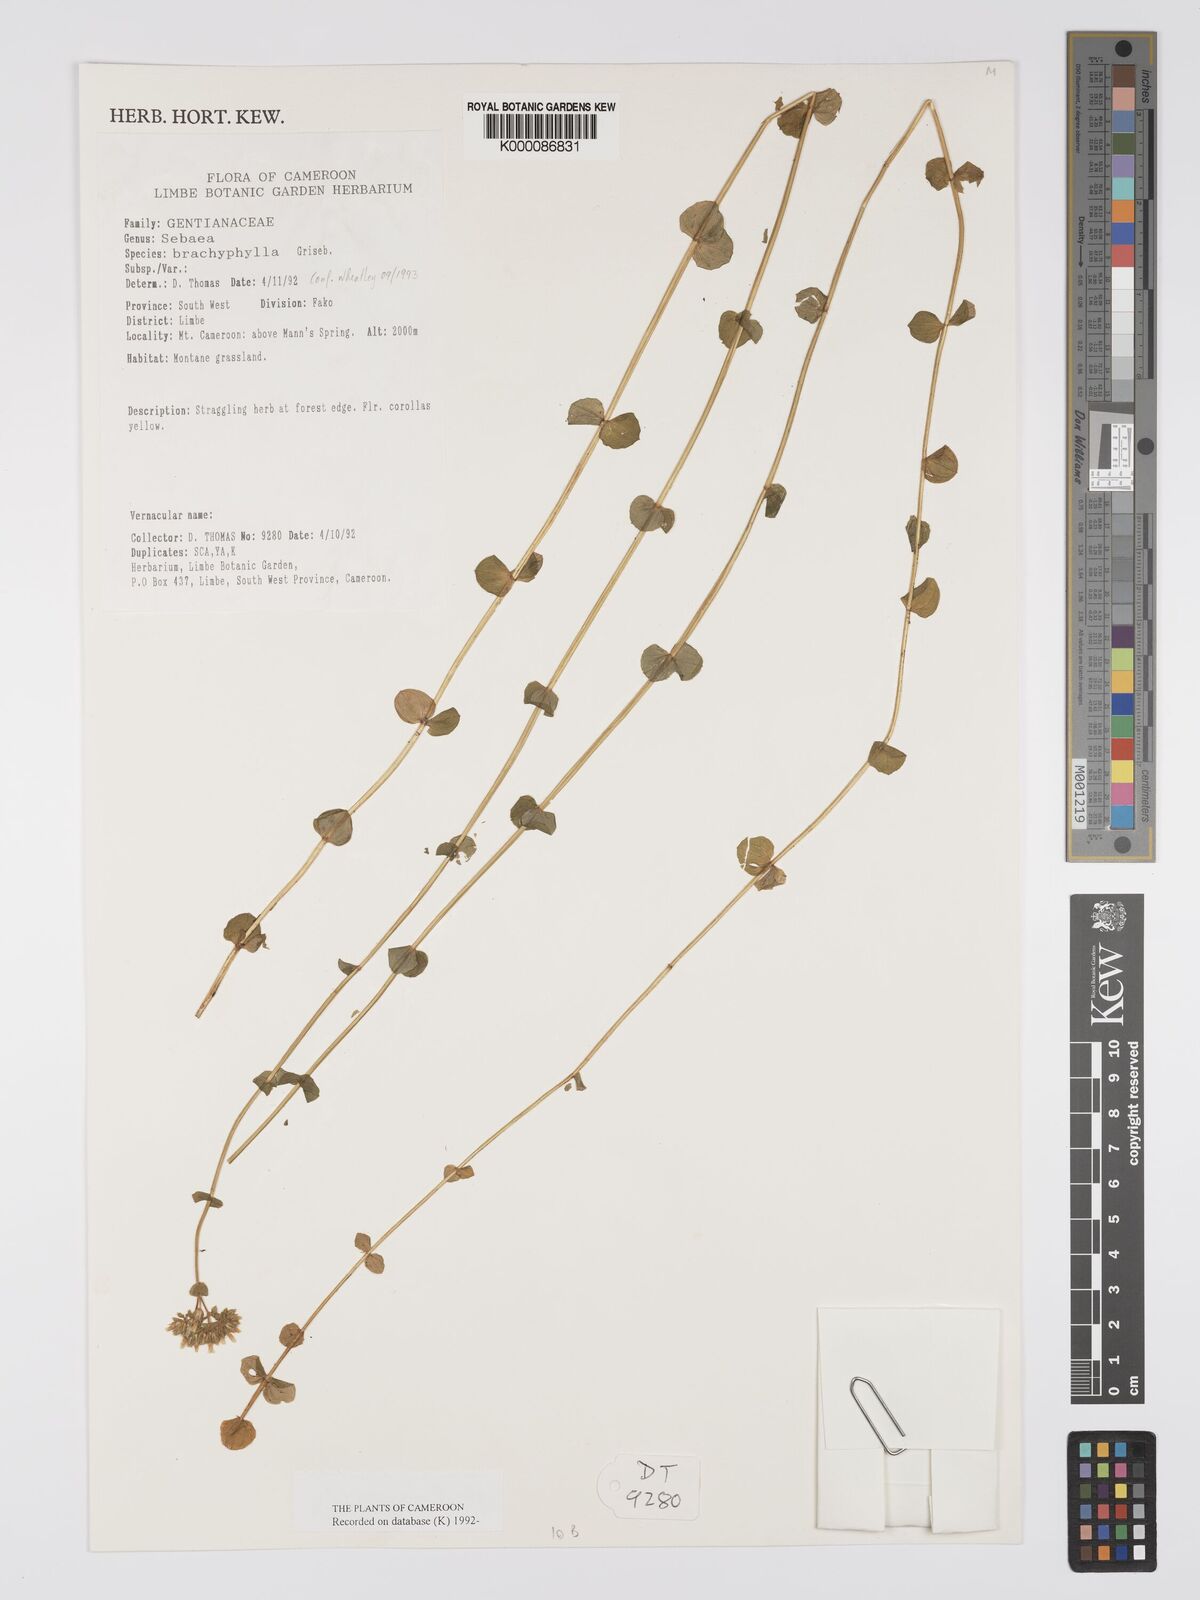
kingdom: Plantae
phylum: Tracheophyta
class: Magnoliopsida
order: Gentianales
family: Gentianaceae
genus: Sebaea
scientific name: Sebaea brachyphylla
